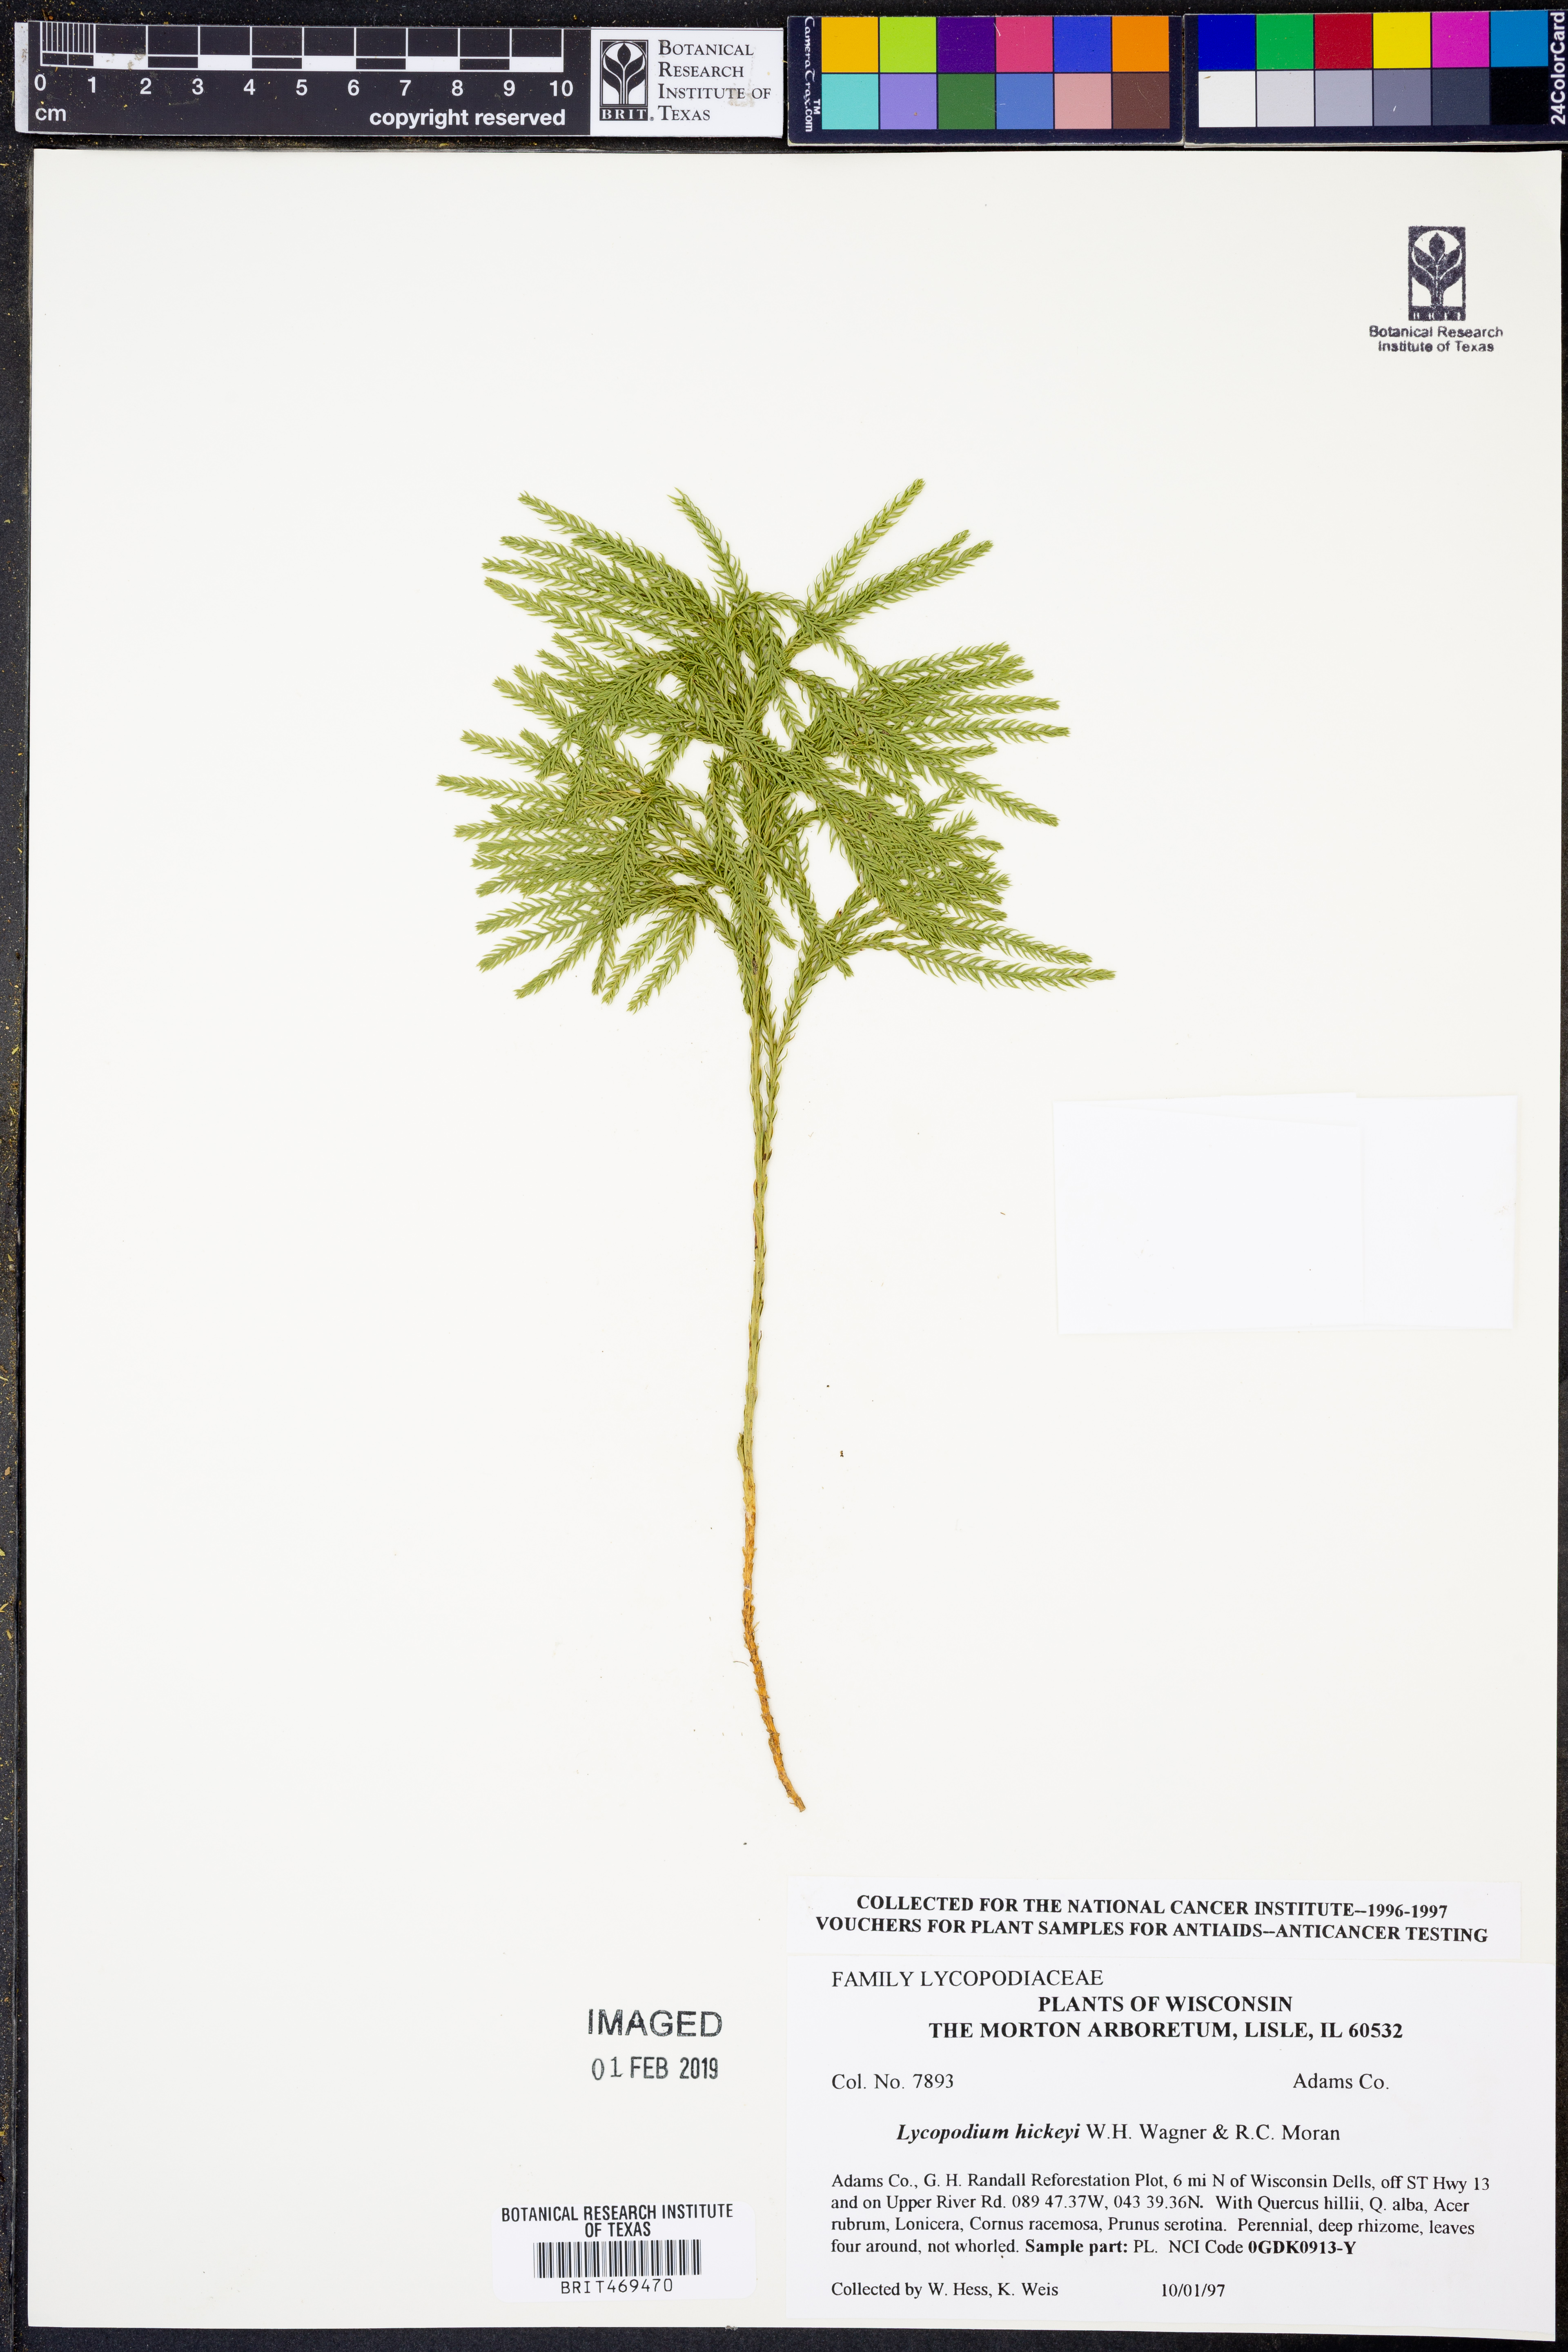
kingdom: Plantae
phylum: Tracheophyta
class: Lycopodiopsida
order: Lycopodiales
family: Lycopodiaceae
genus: Dendrolycopodium
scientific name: Dendrolycopodium hickeyi
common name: Hickey's clubmoss
